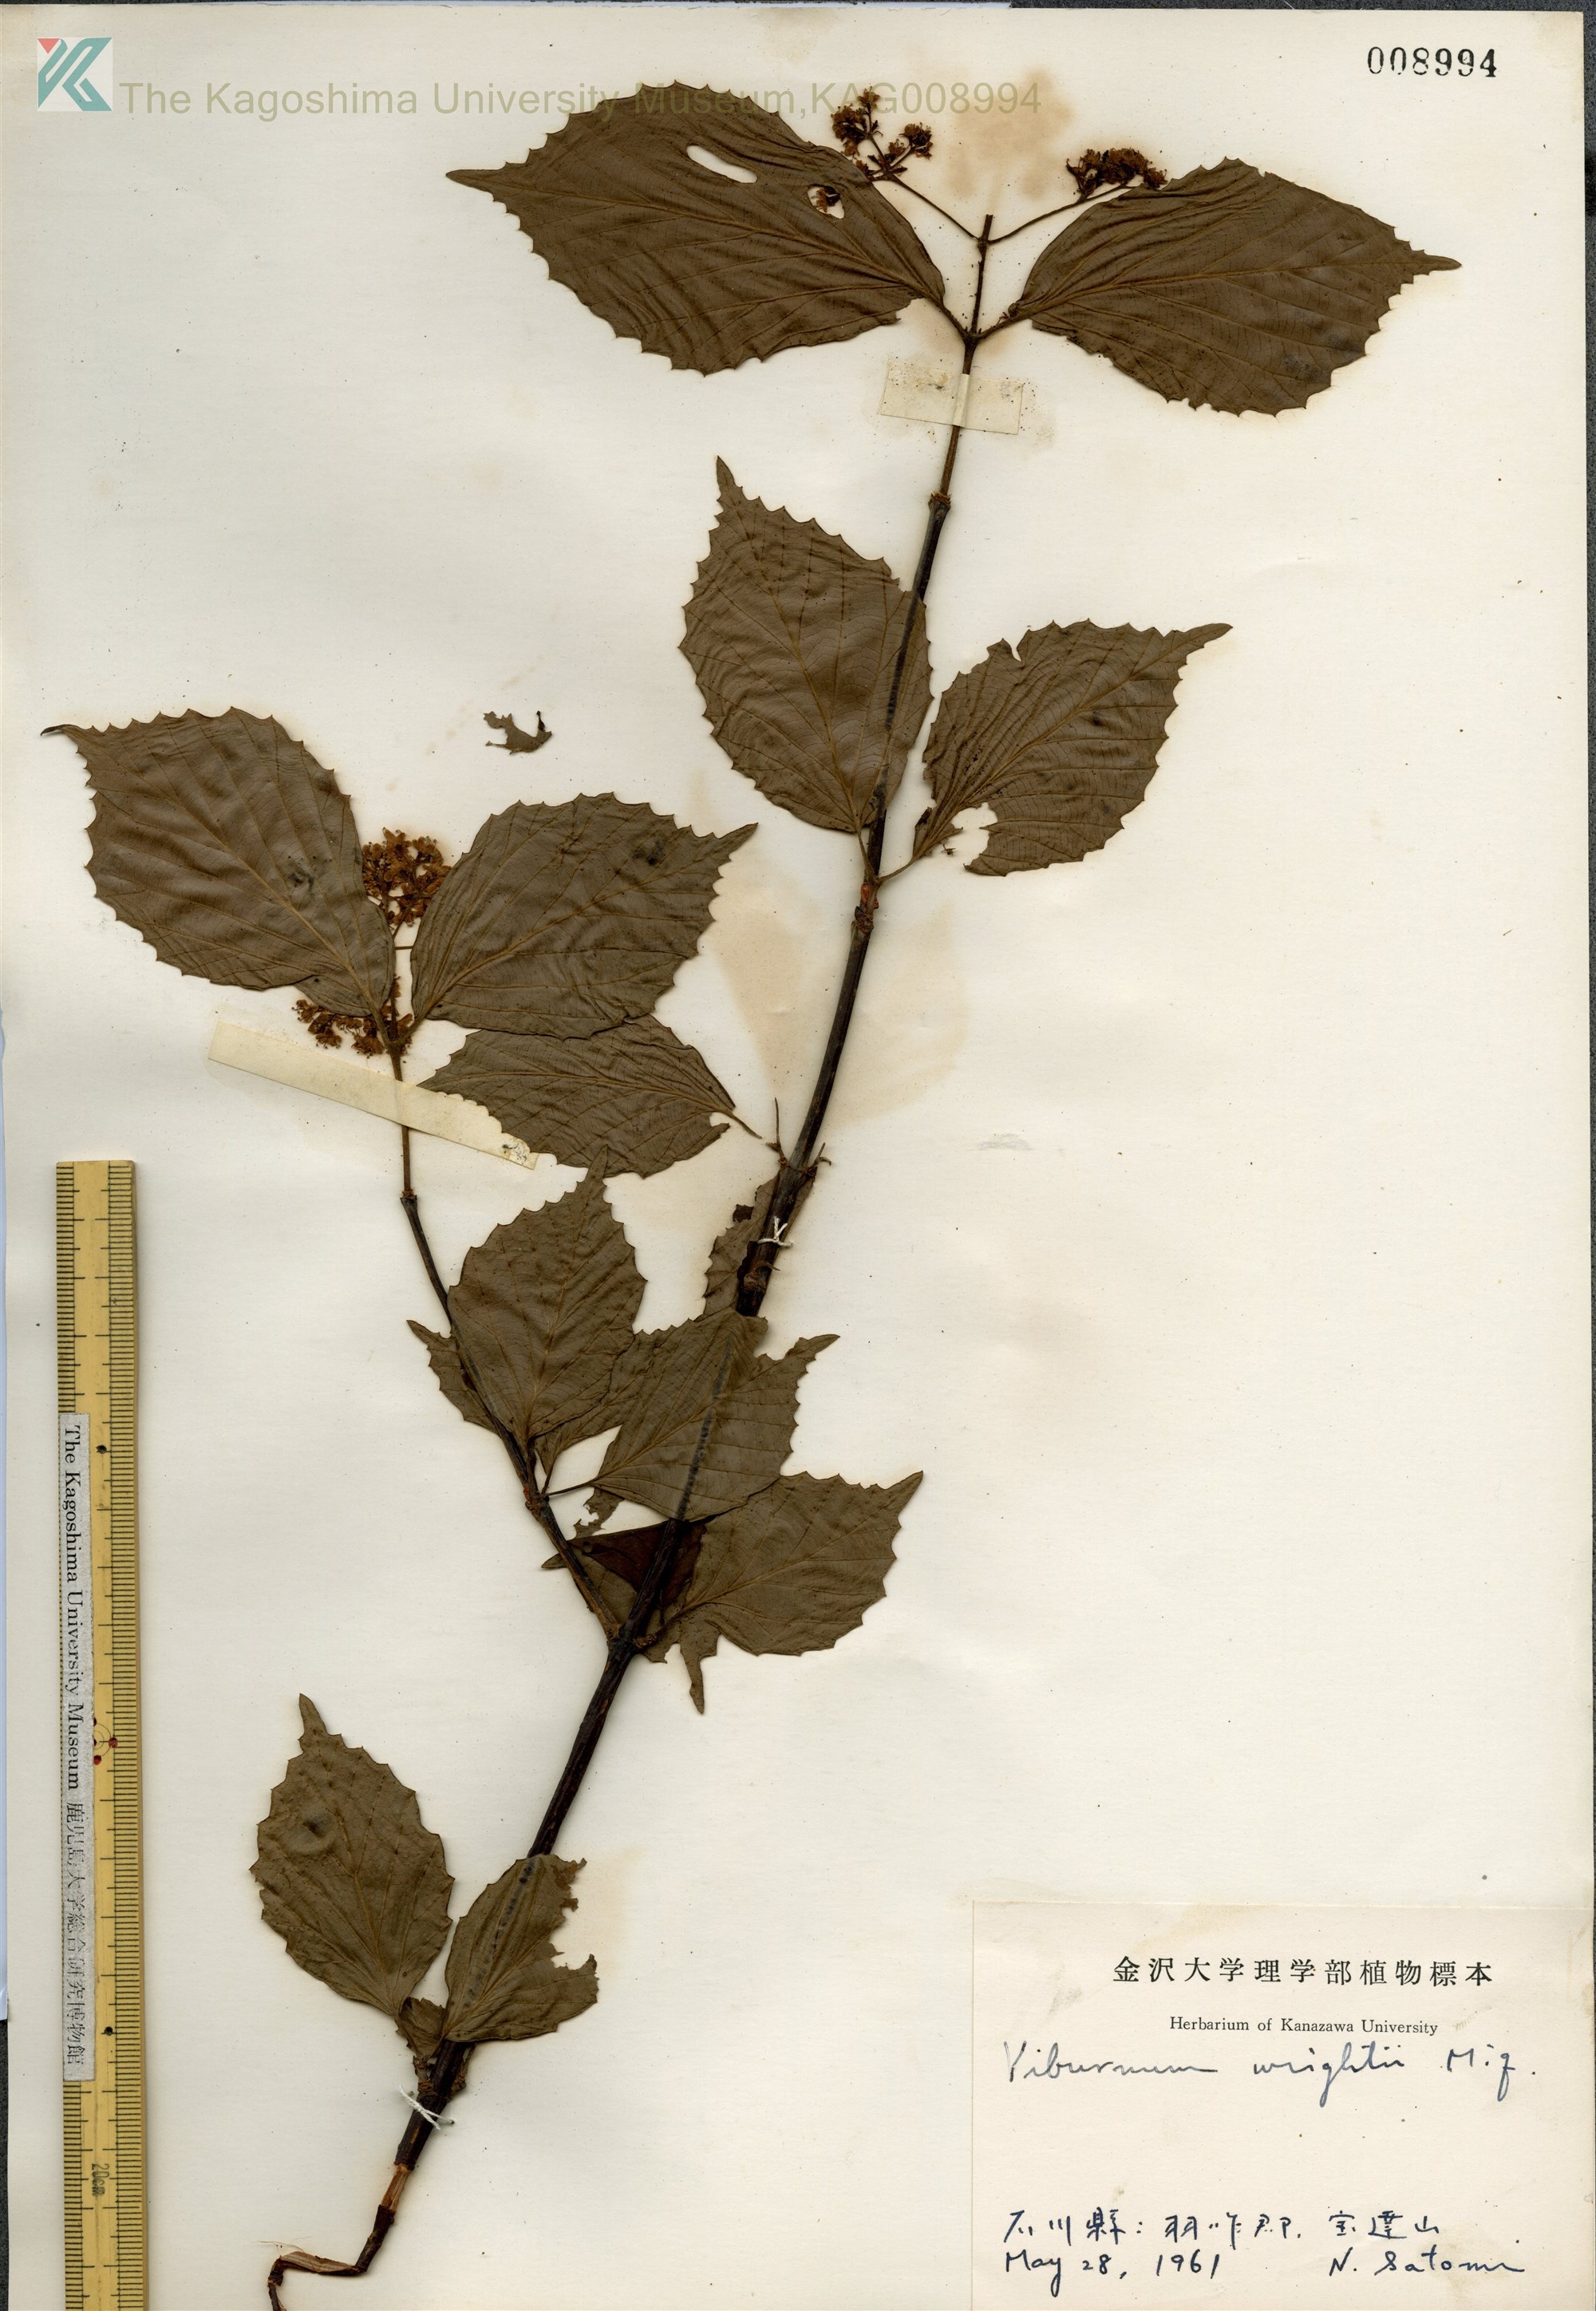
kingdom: Plantae
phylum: Tracheophyta
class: Magnoliopsida
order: Dipsacales
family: Viburnaceae
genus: Viburnum
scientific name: Viburnum wrightii
